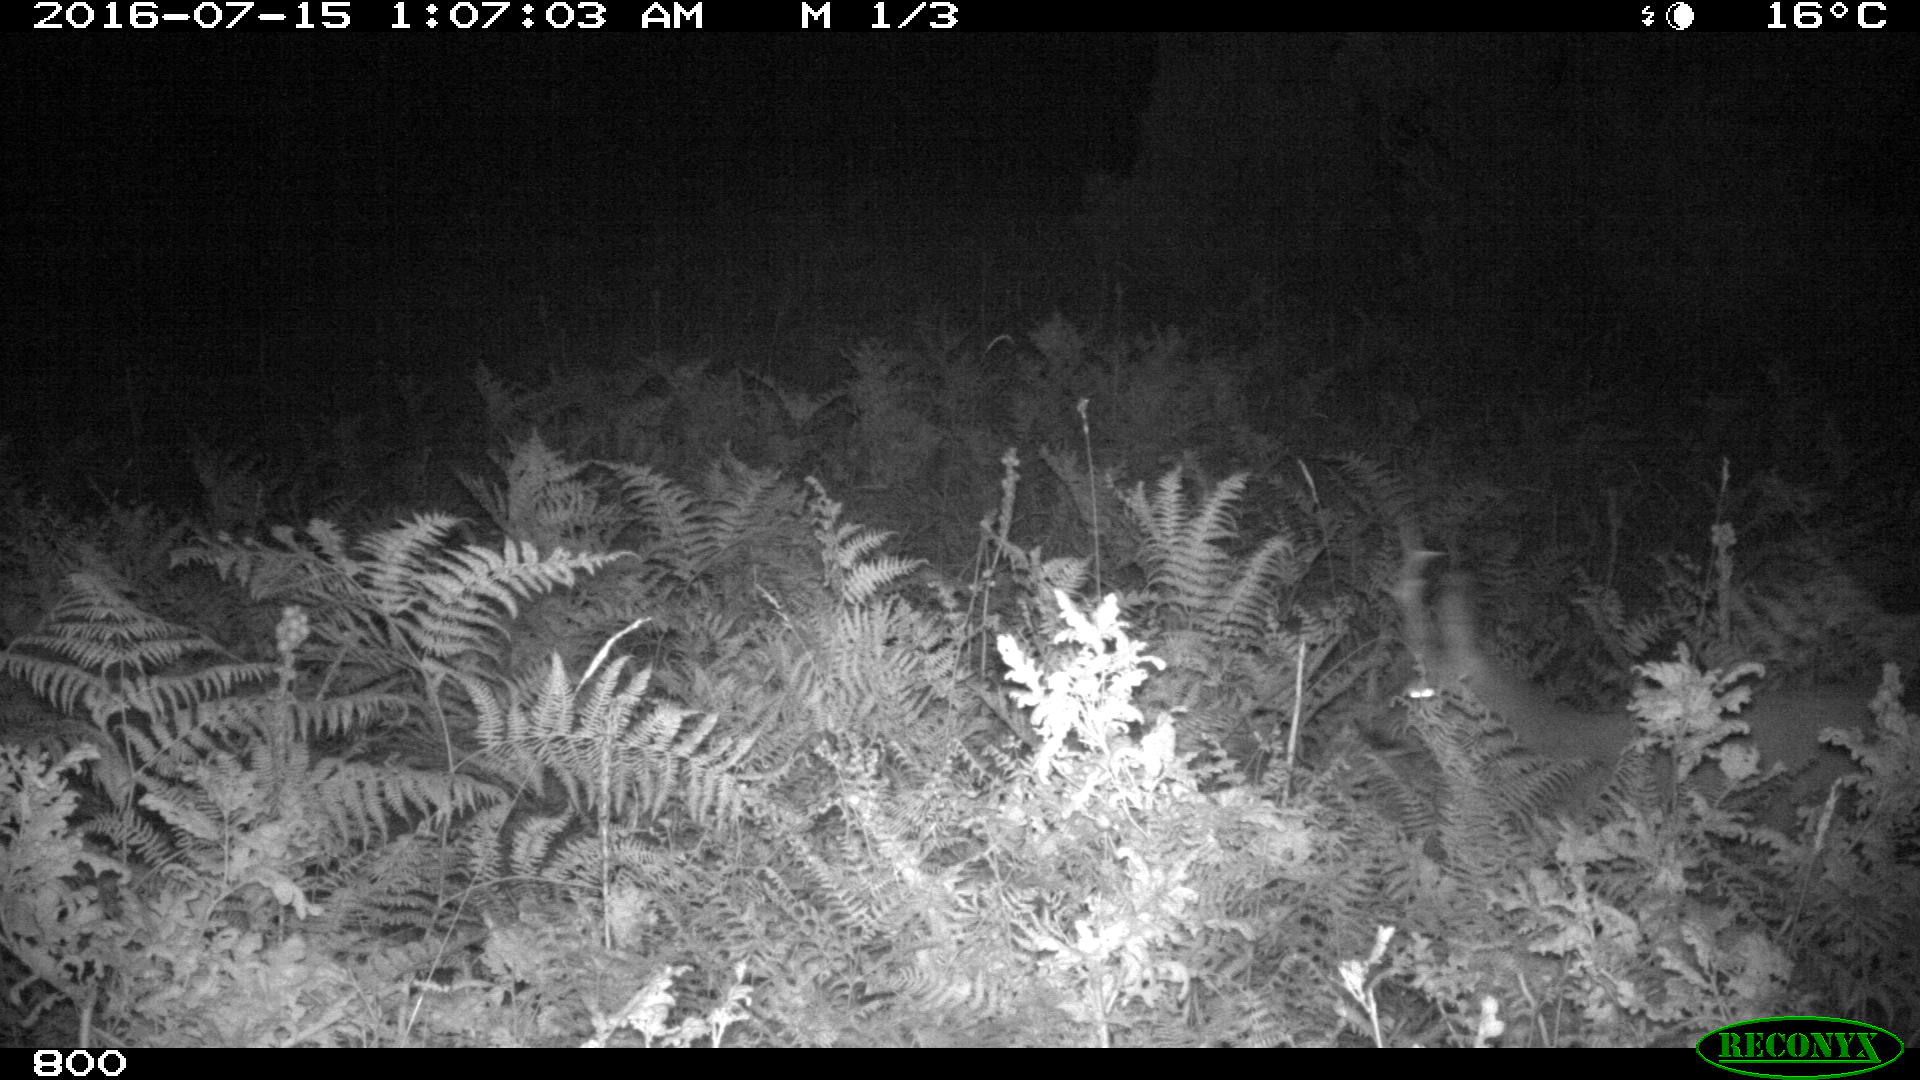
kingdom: Animalia
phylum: Chordata
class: Mammalia
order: Artiodactyla
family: Cervidae
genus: Capreolus
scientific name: Capreolus capreolus
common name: Western roe deer
